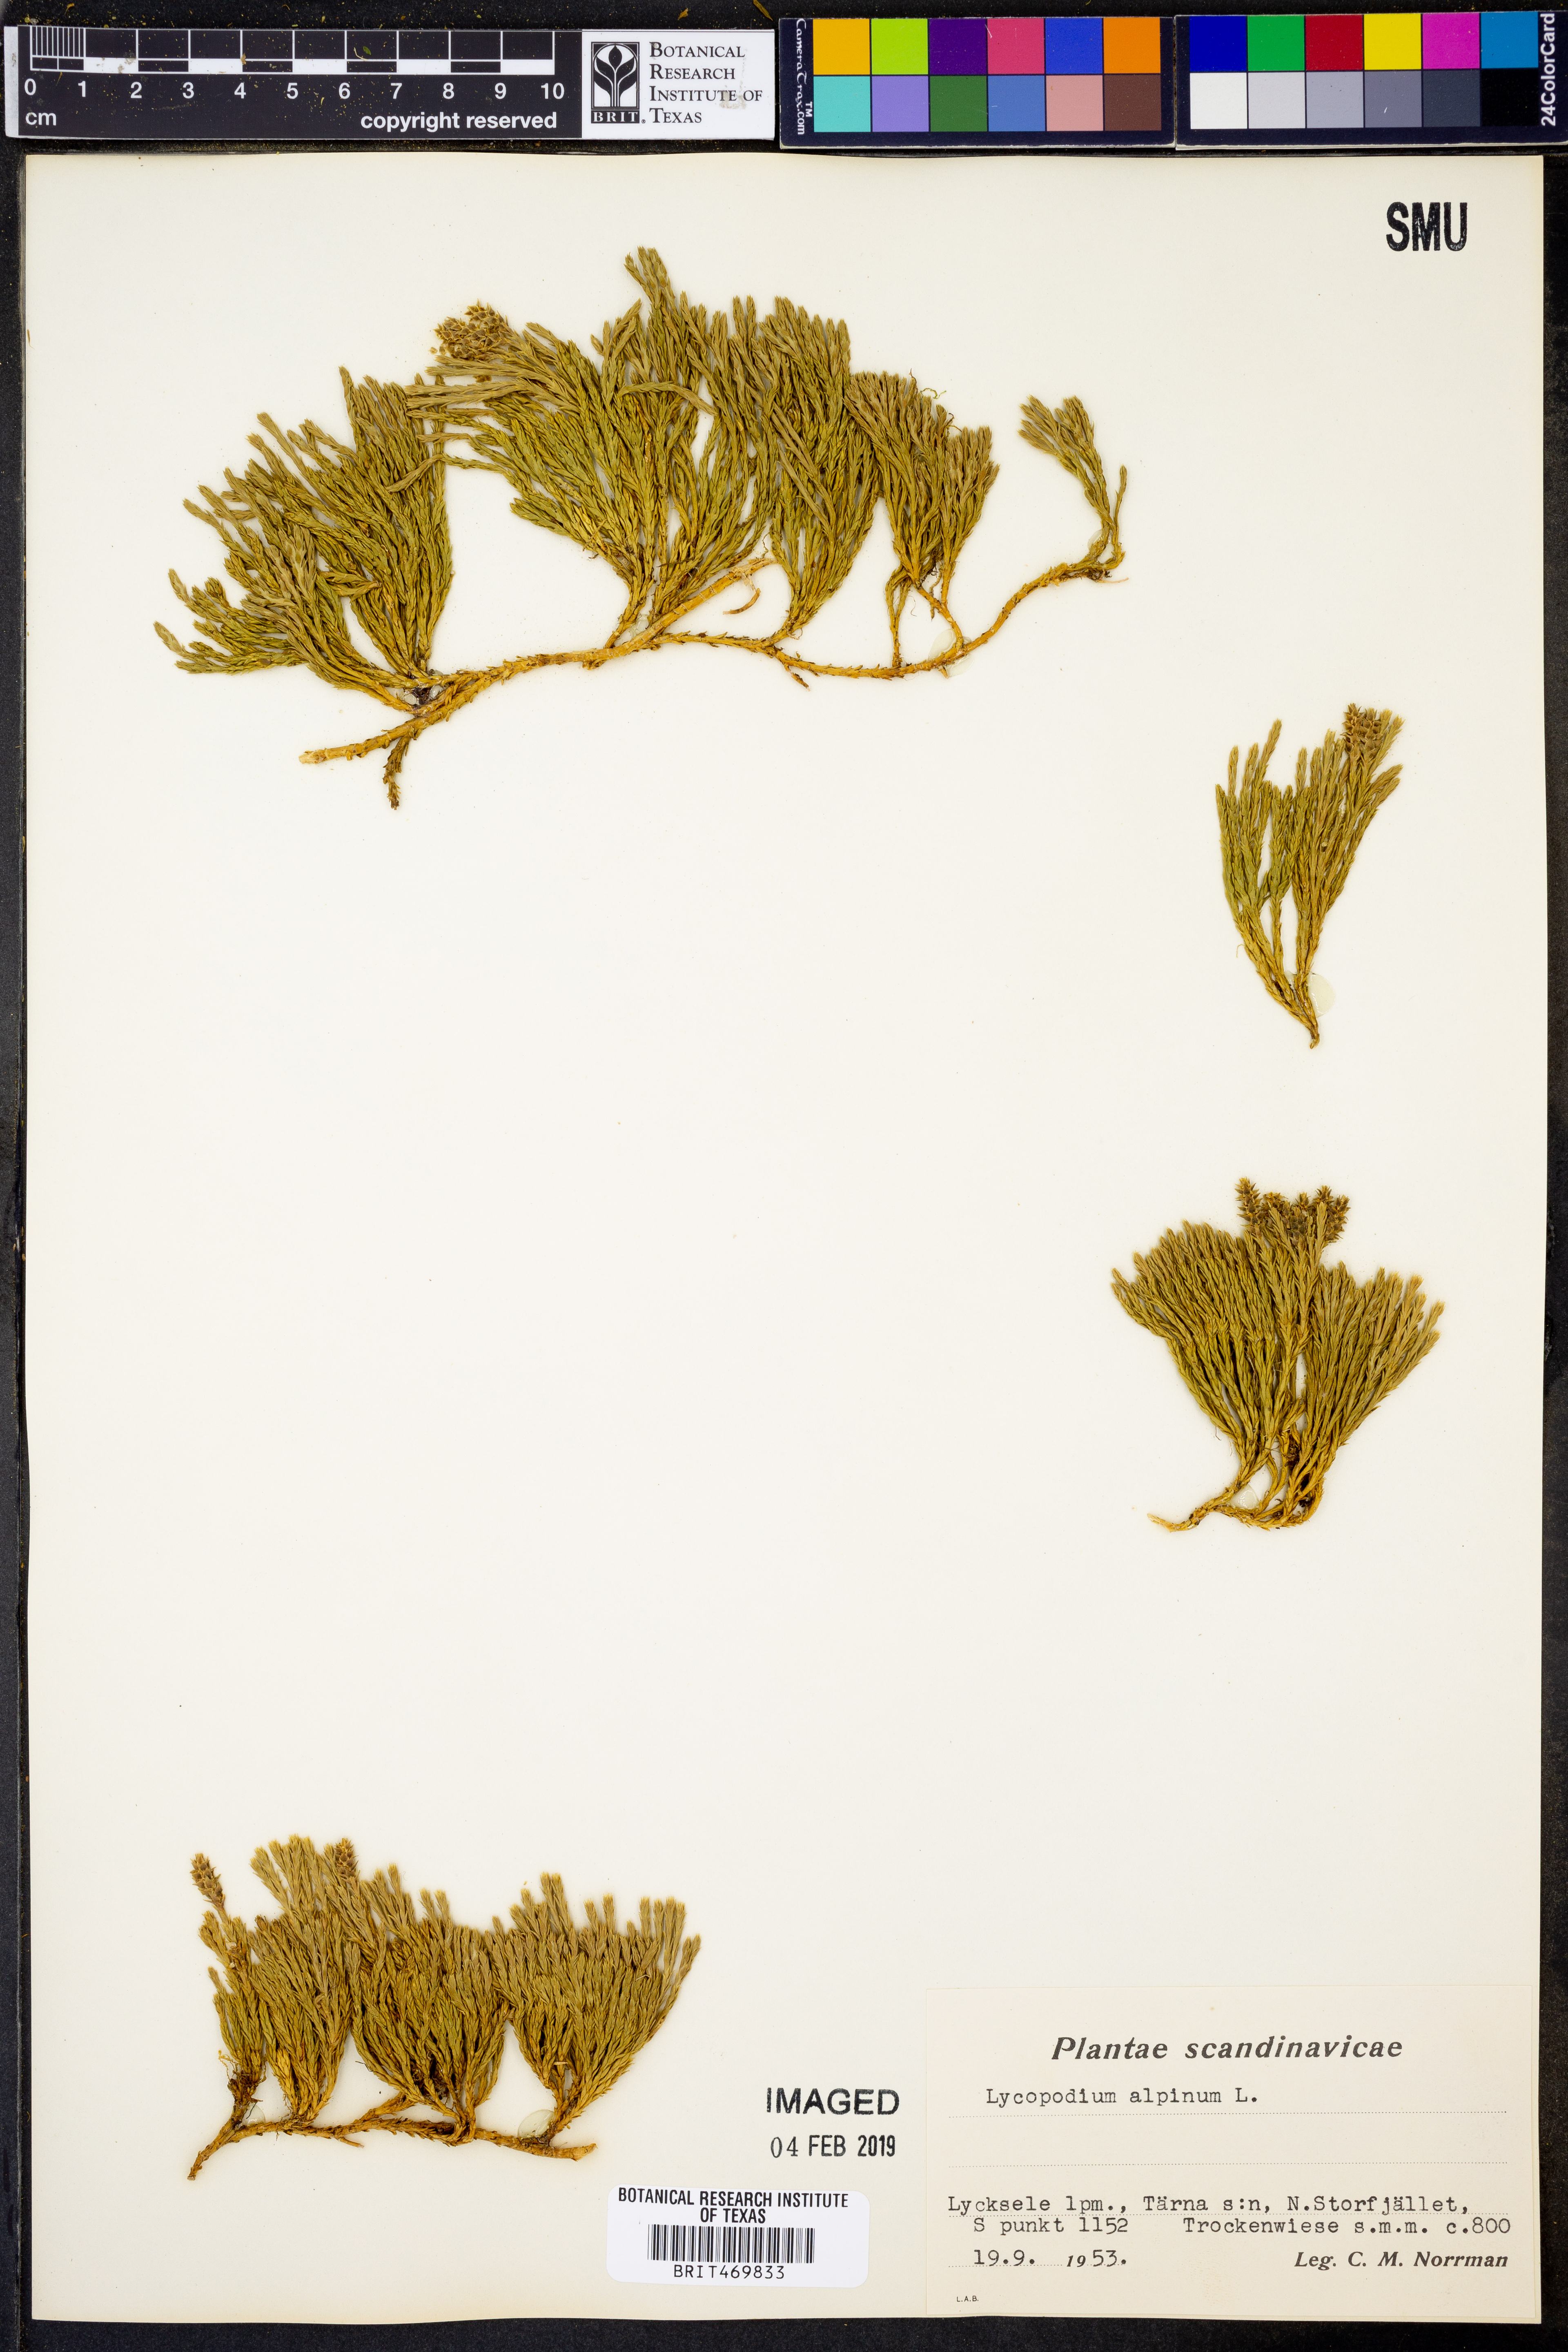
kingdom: Plantae
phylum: Tracheophyta
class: Lycopodiopsida
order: Lycopodiales
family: Lycopodiaceae
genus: Diphasiastrum
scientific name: Diphasiastrum alpinum
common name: Alpine clubmoss
